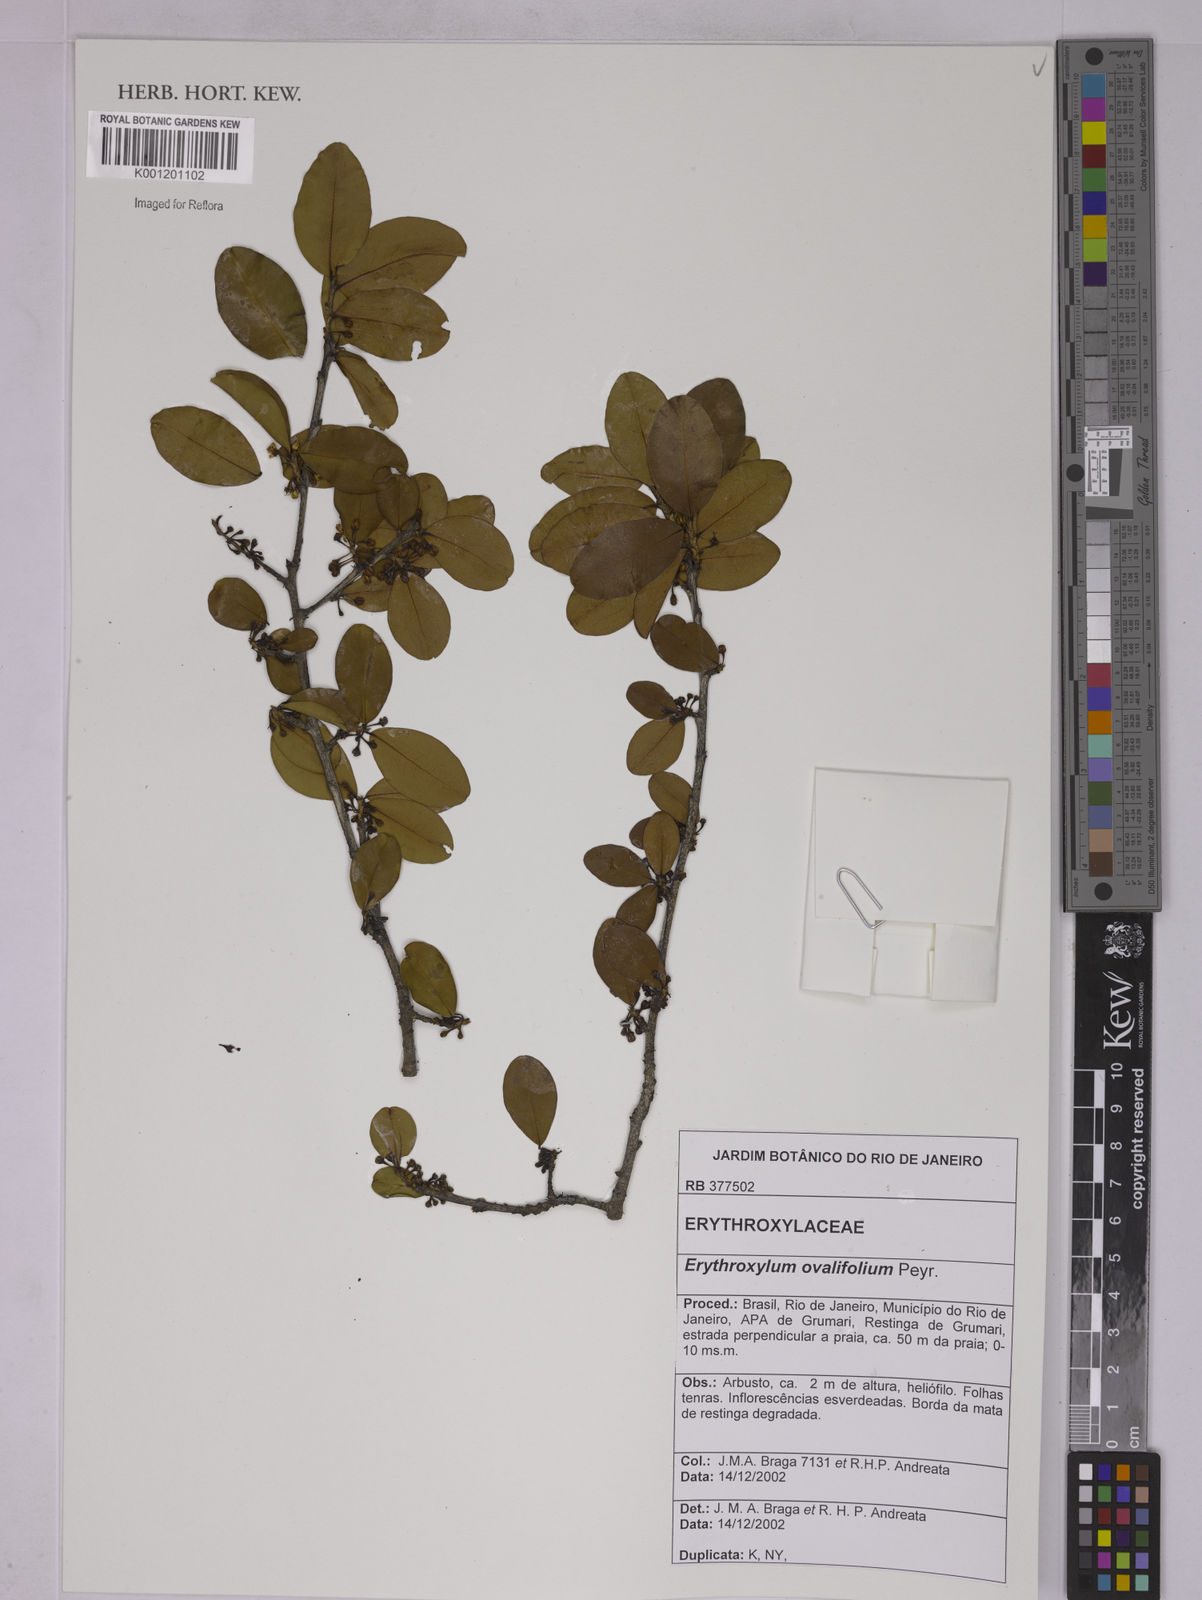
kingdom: Plantae
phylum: Tracheophyta
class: Magnoliopsida
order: Malpighiales
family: Erythroxylaceae
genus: Erythroxylum
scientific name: Erythroxylum ovalifolium
